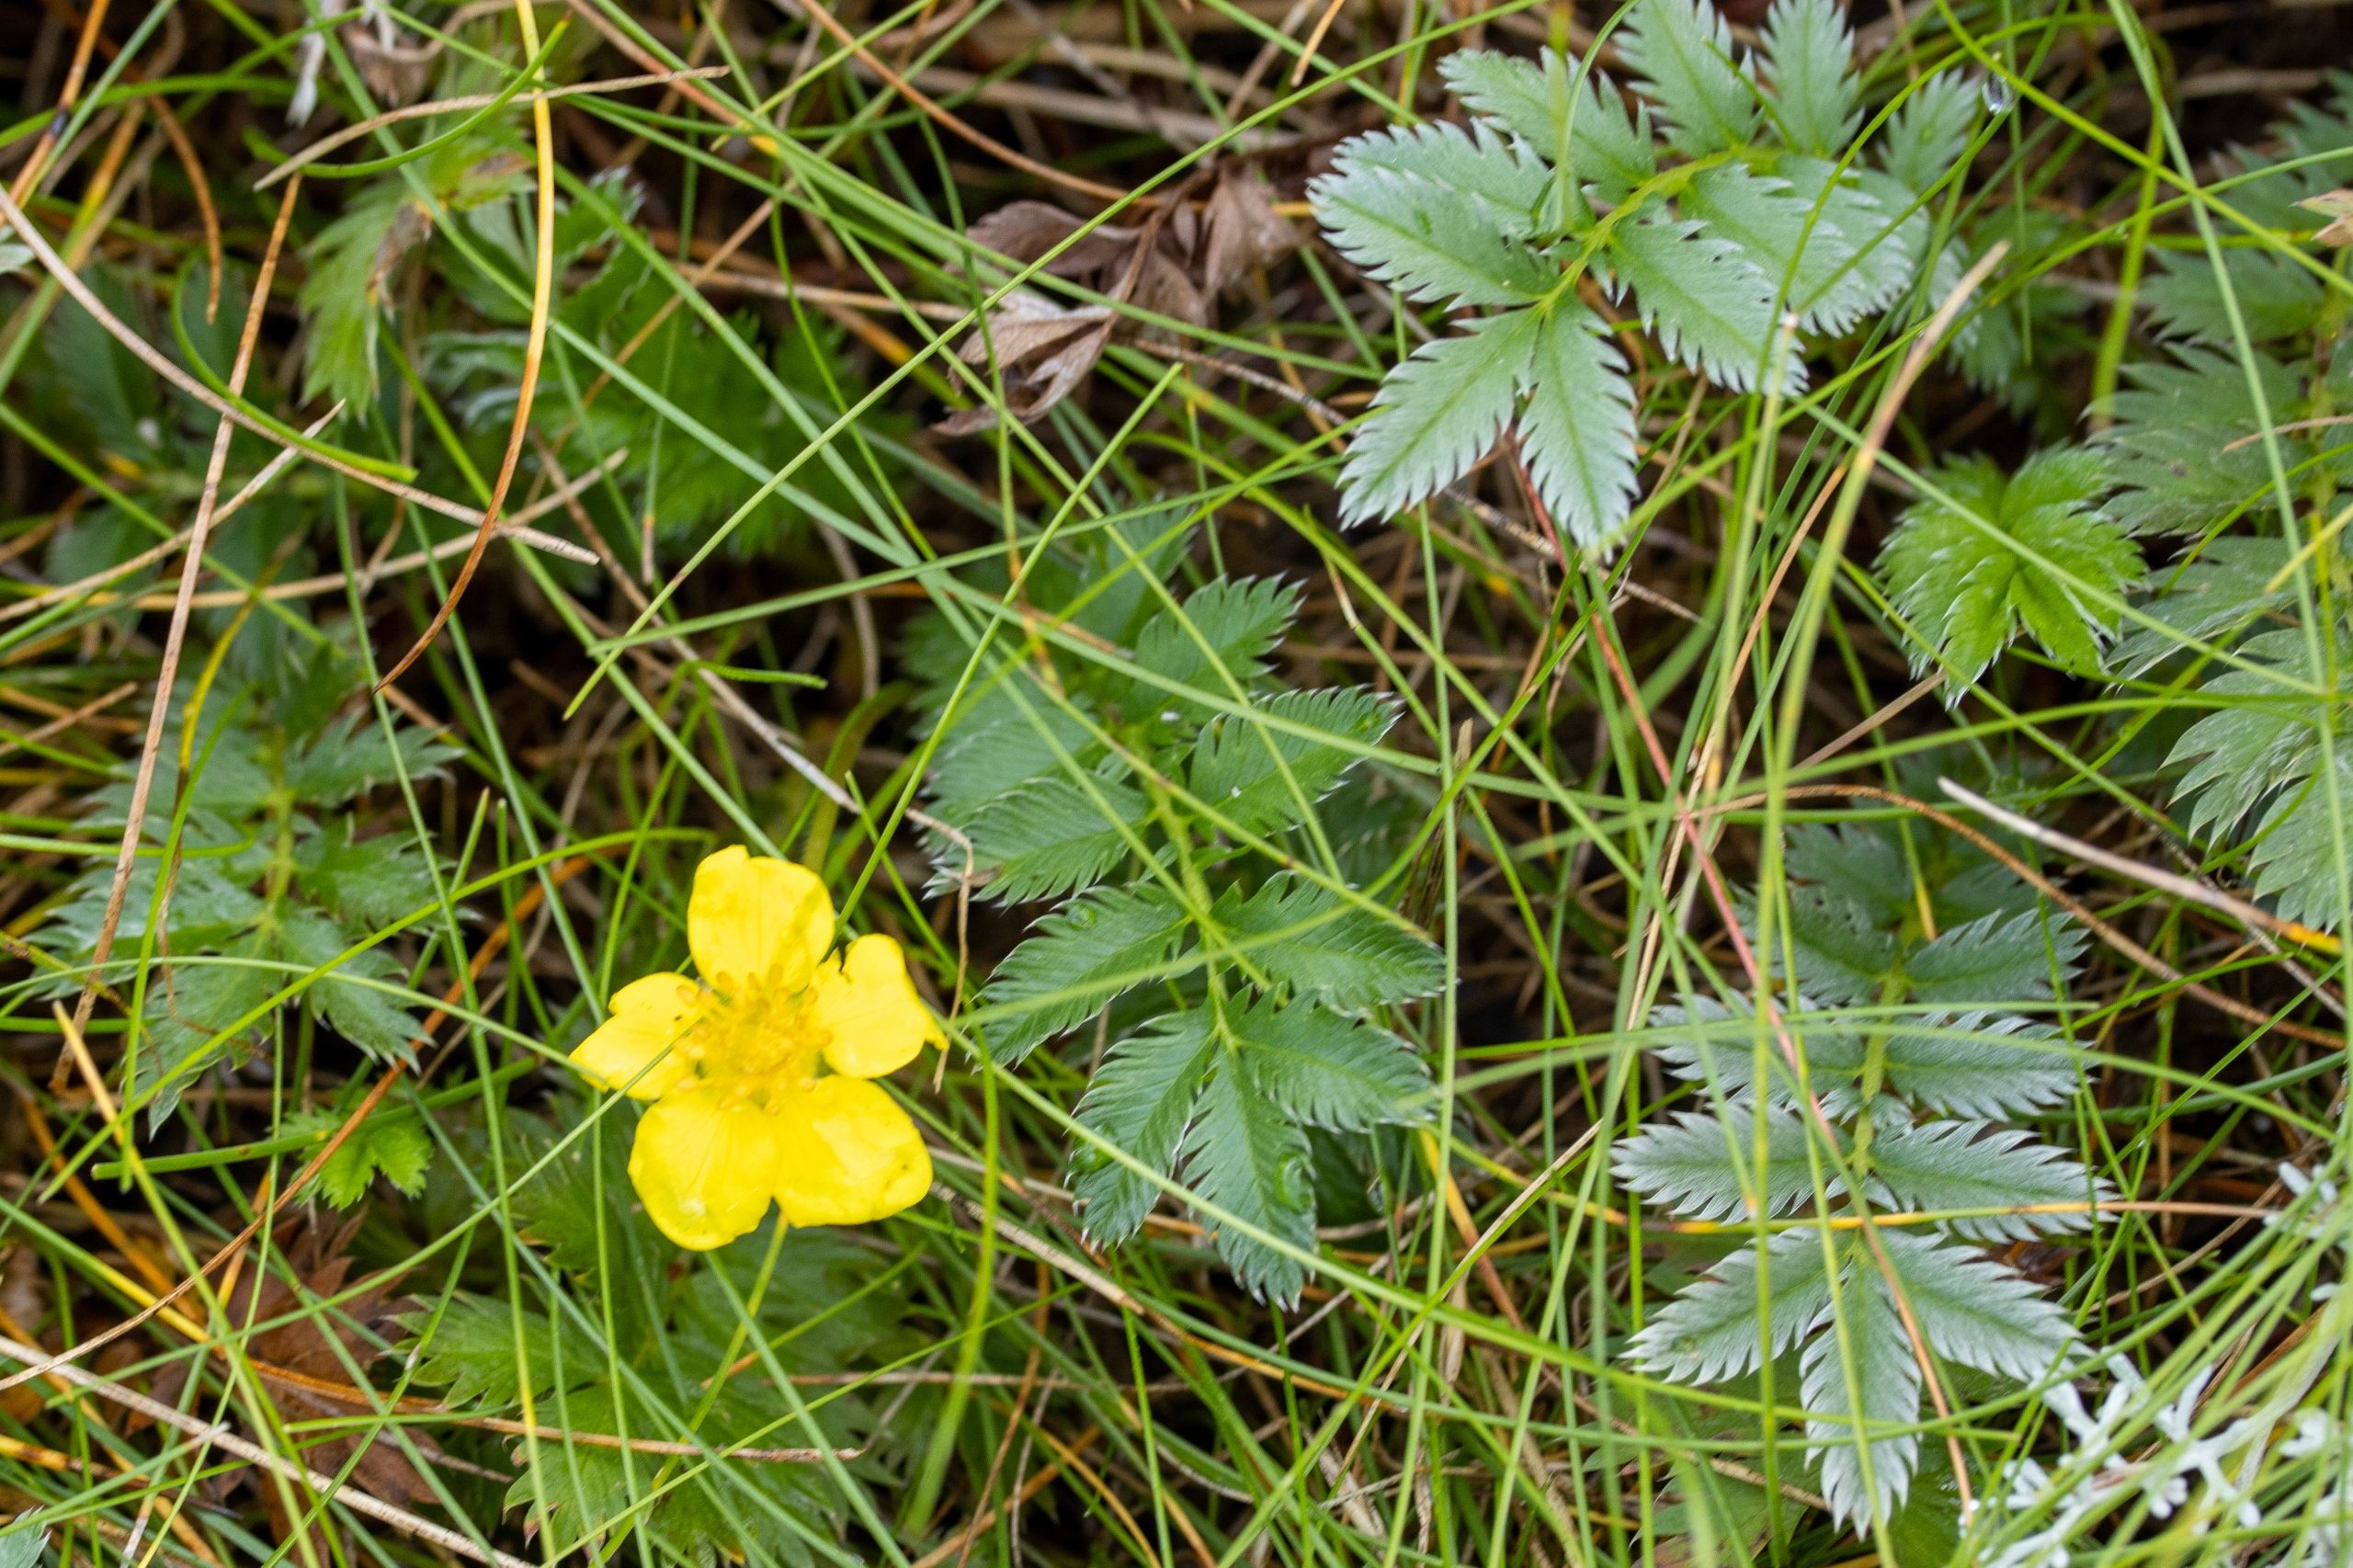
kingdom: Plantae
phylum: Tracheophyta
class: Magnoliopsida
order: Rosales
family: Rosaceae
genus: Argentina
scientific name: Argentina anserina
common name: Gåsepotentil
